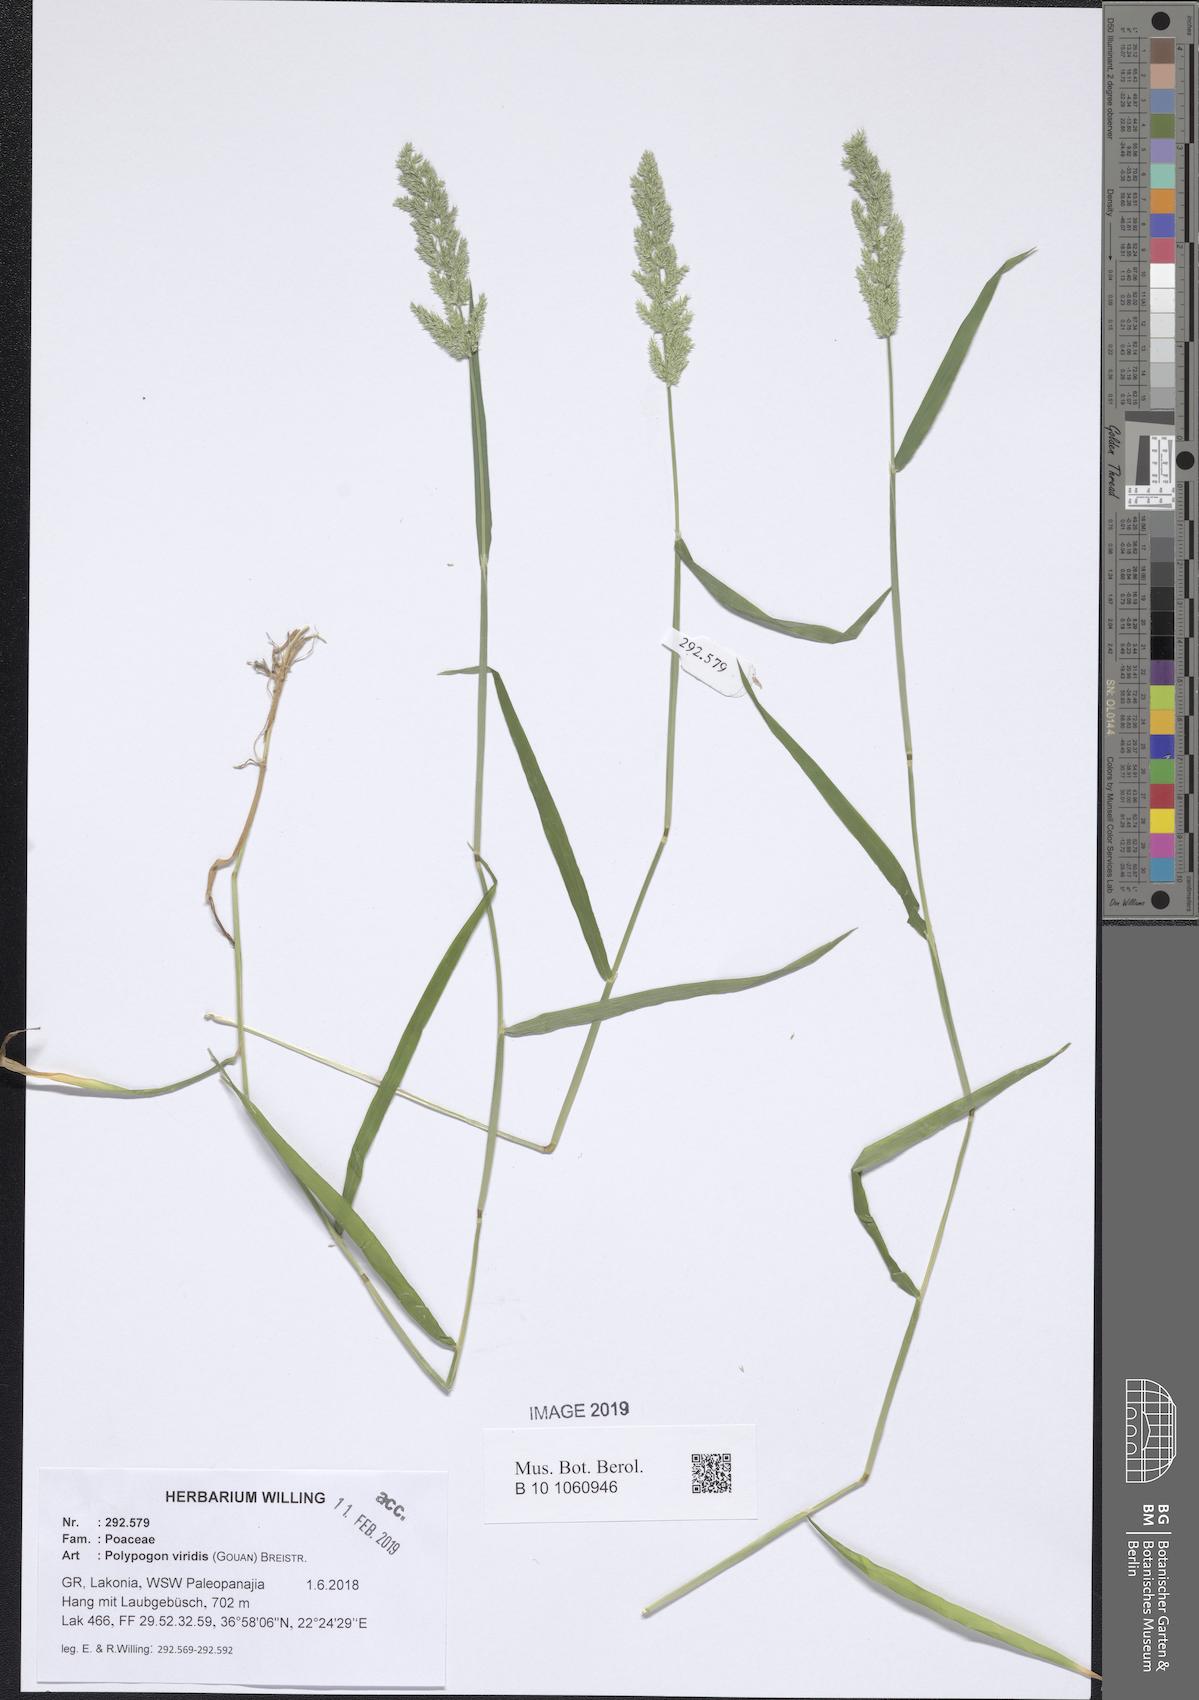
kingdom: Plantae
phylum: Tracheophyta
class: Liliopsida
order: Poales
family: Poaceae
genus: Polypogon
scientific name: Polypogon viridis
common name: Water bent
